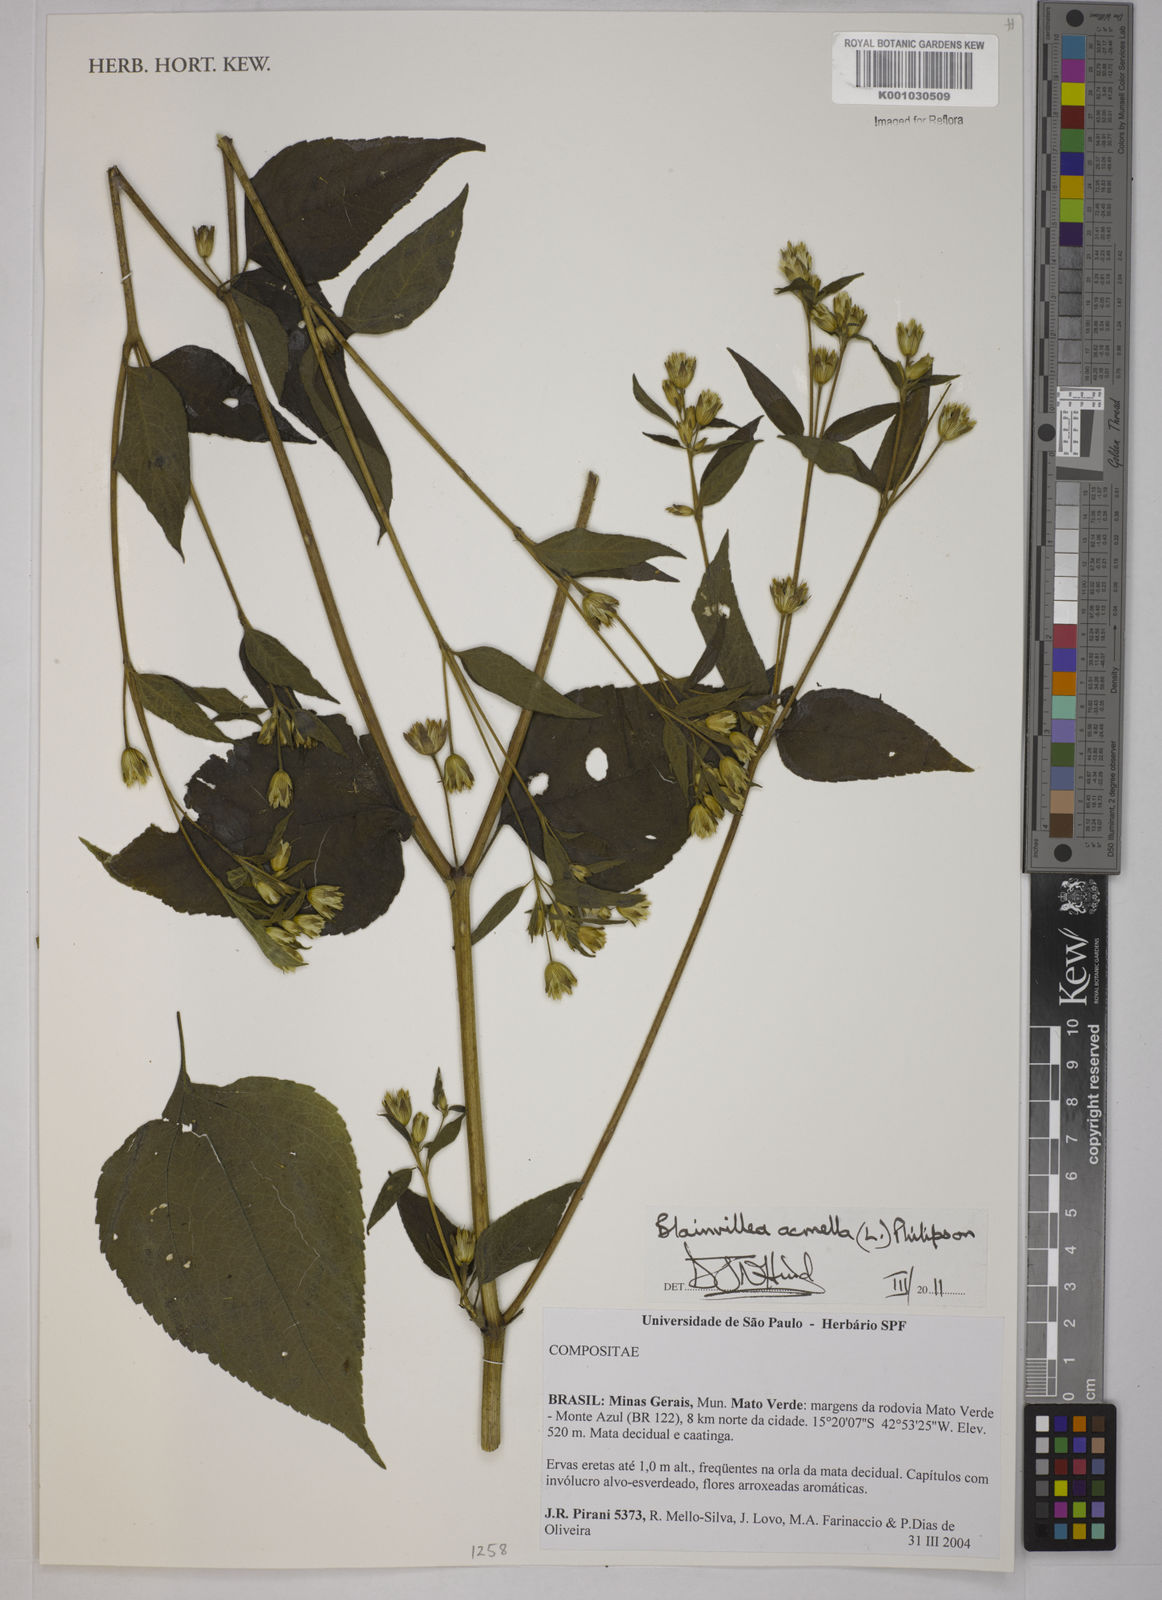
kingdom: Plantae
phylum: Tracheophyta
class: Magnoliopsida
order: Asterales
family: Asteraceae
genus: Blainvillea
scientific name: Blainvillea acmella
